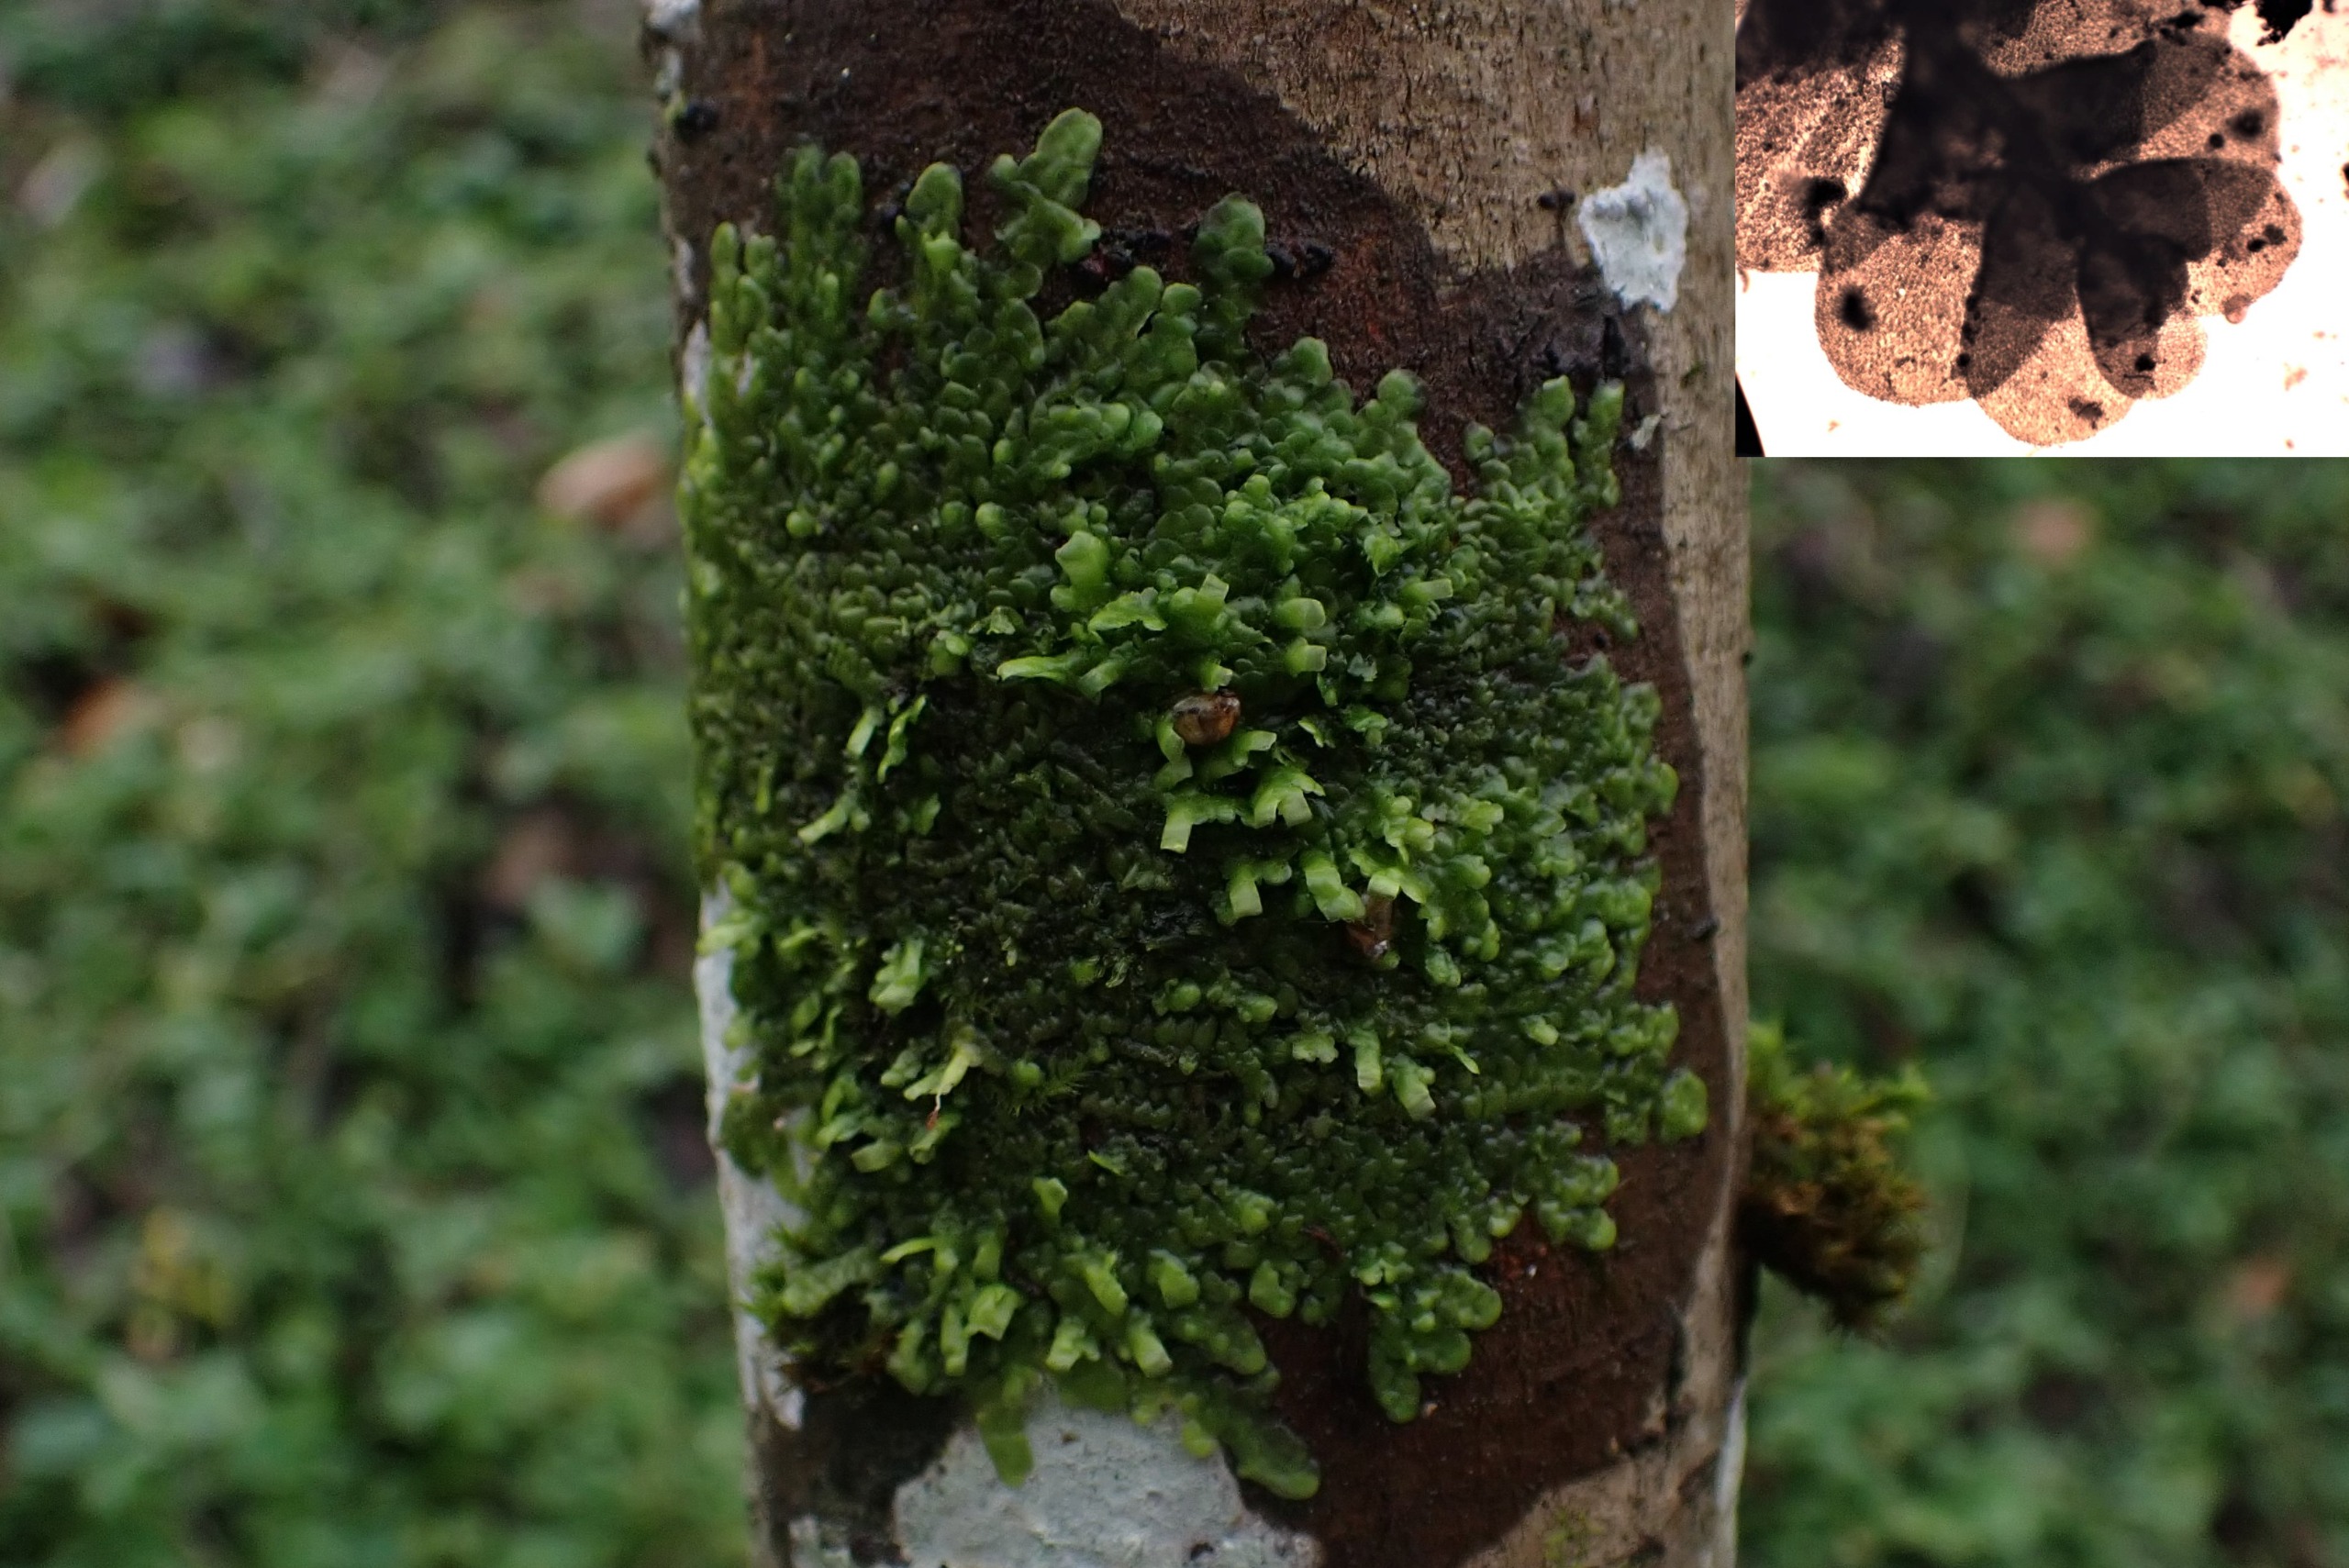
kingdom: Plantae
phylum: Marchantiophyta
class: Jungermanniopsida
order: Porellales
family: Radulaceae
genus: Radula
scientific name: Radula complanata
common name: Almindelig spartelmos
